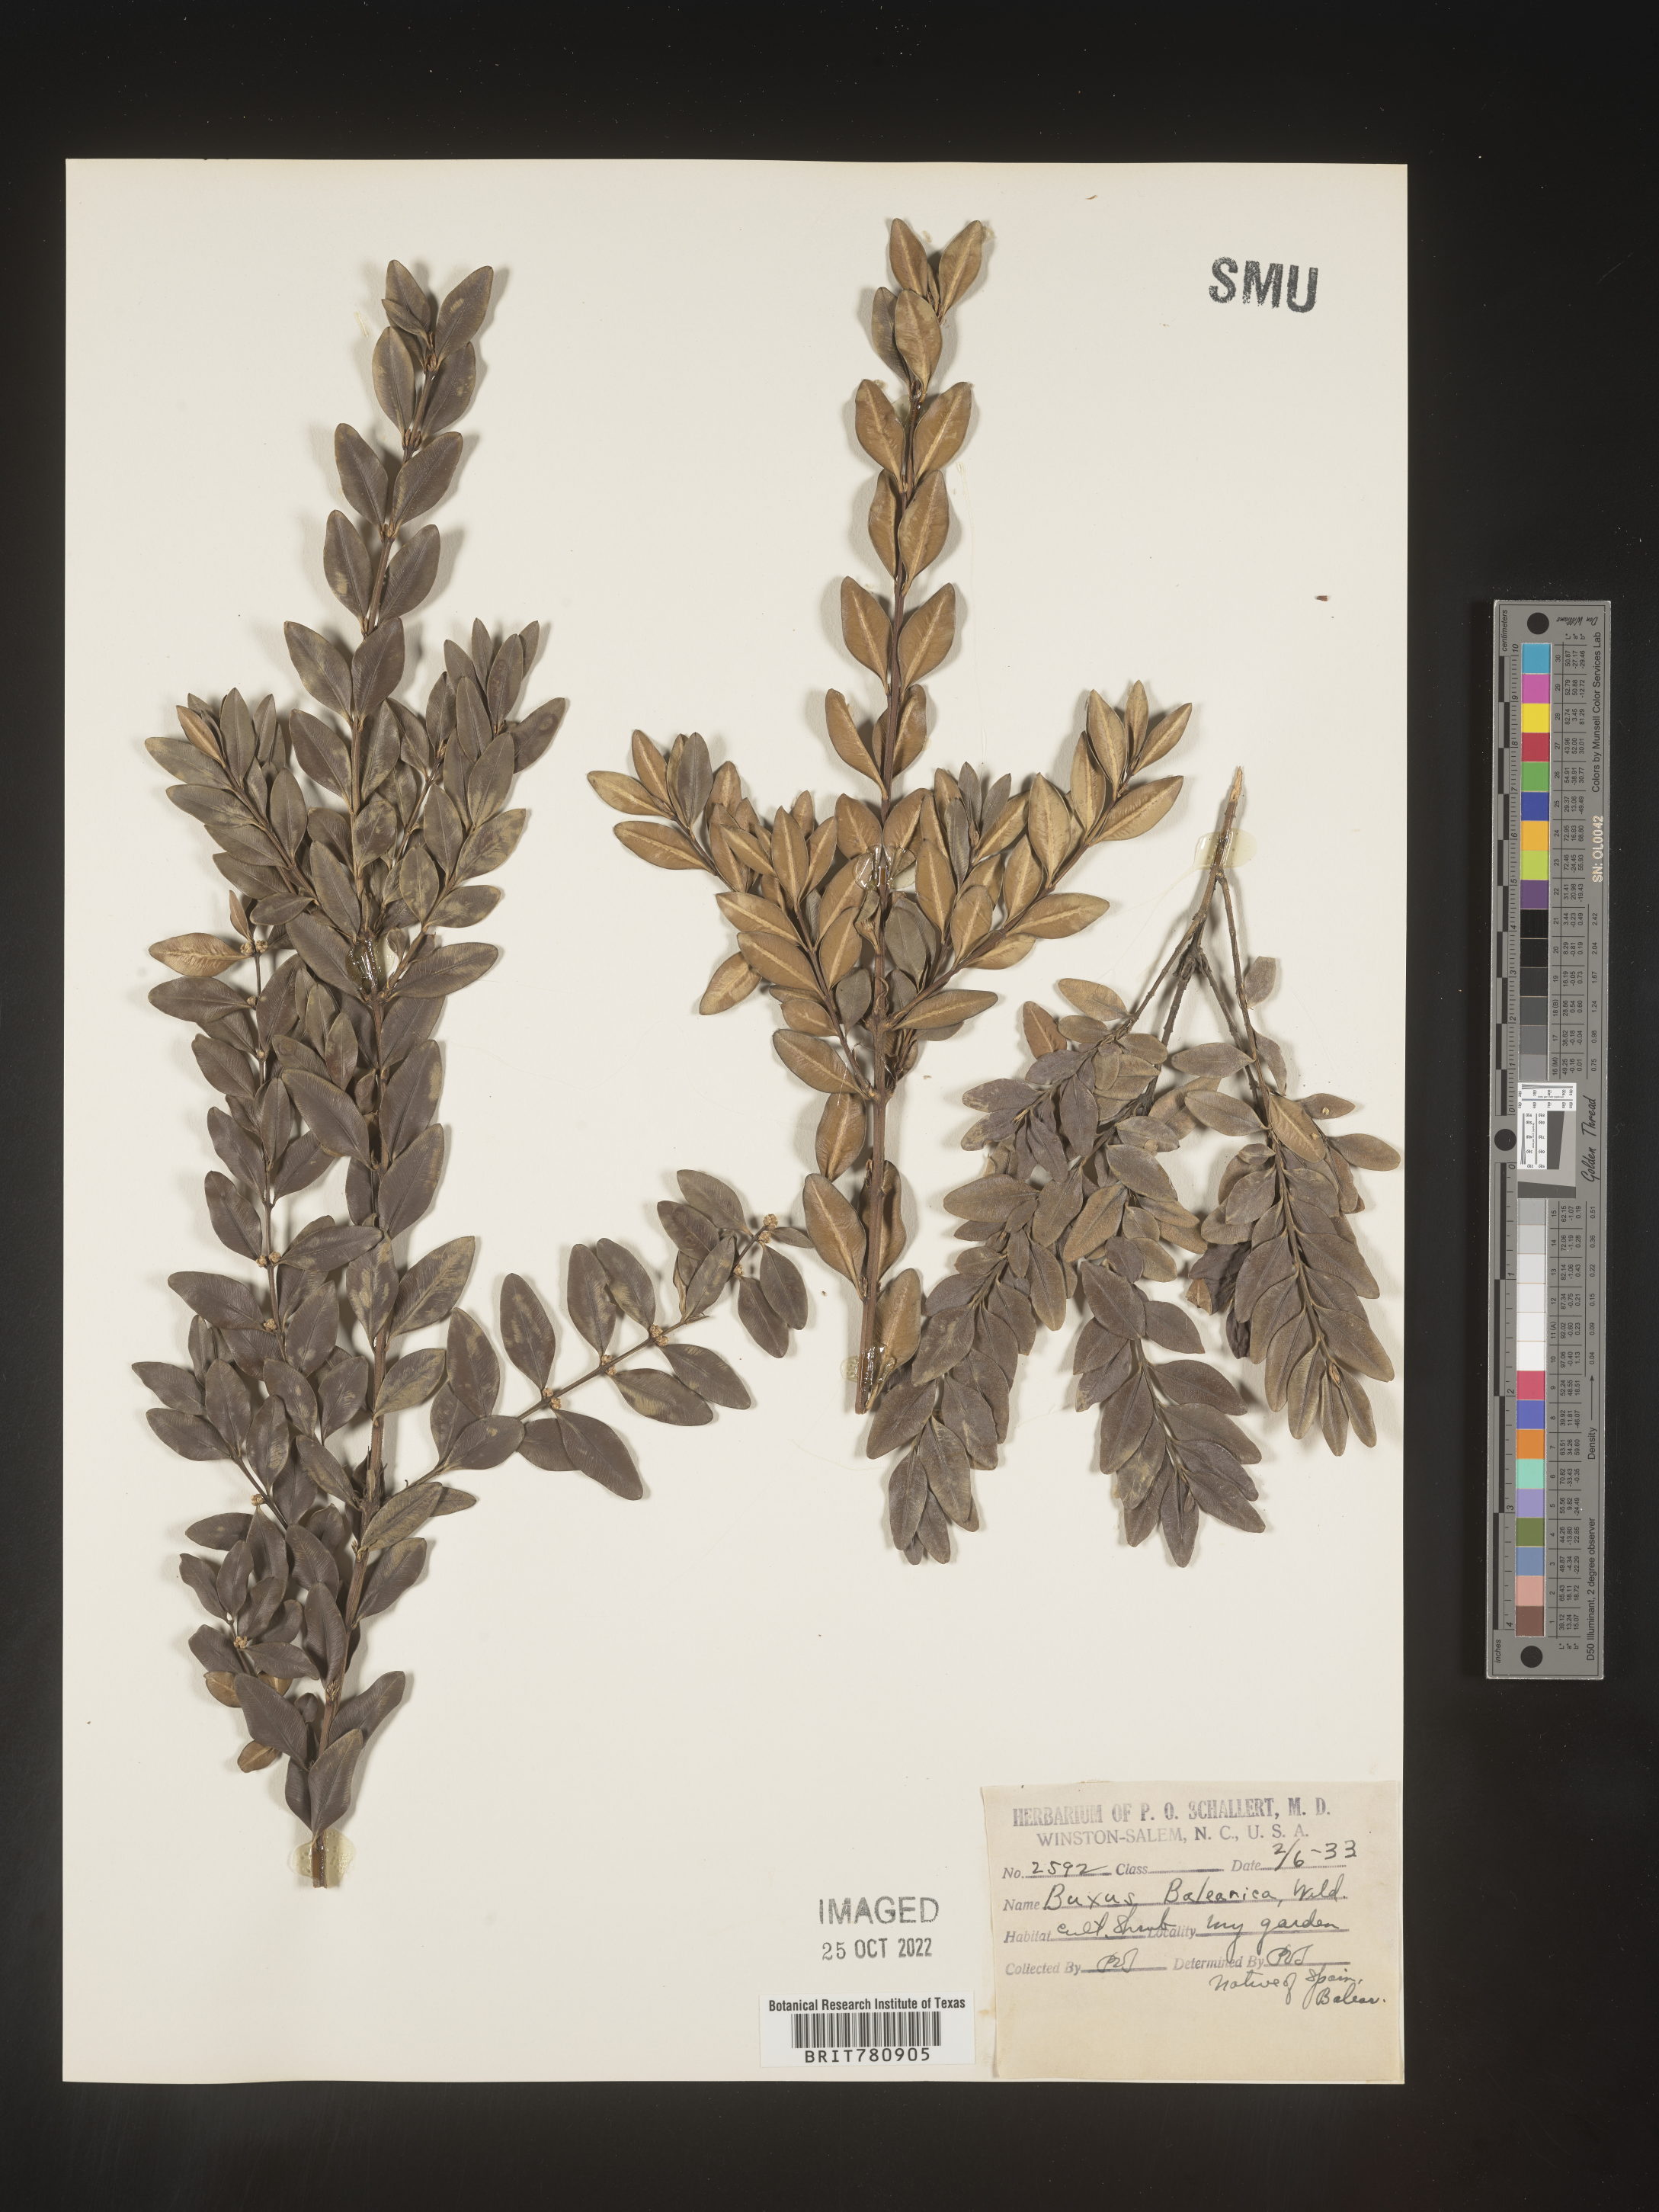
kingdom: Plantae
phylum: Tracheophyta
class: Magnoliopsida
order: Buxales
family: Buxaceae
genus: Buxus
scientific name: Buxus
